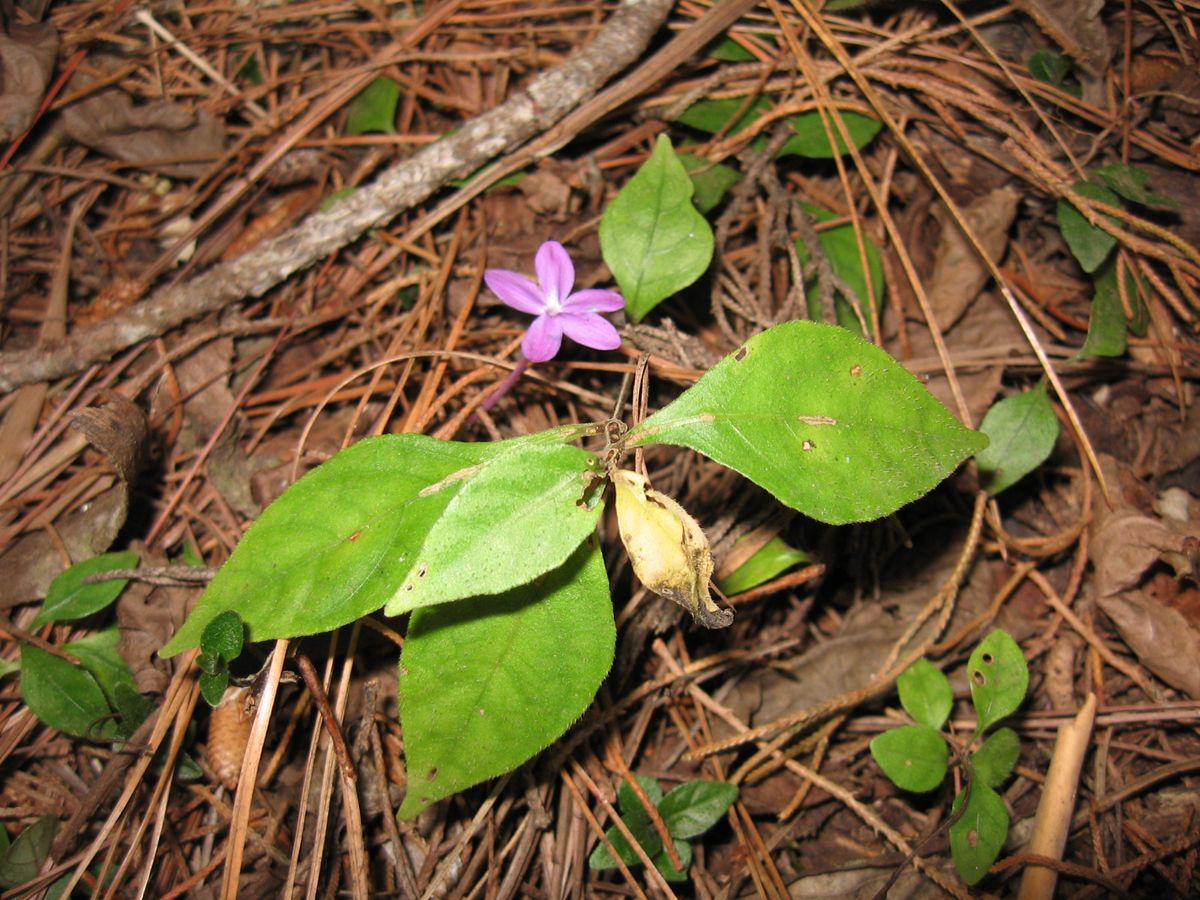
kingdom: Plantae
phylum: Tracheophyta
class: Magnoliopsida
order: Lamiales
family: Acanthaceae
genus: Pseuderanthemum
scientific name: Pseuderanthemum praecox
